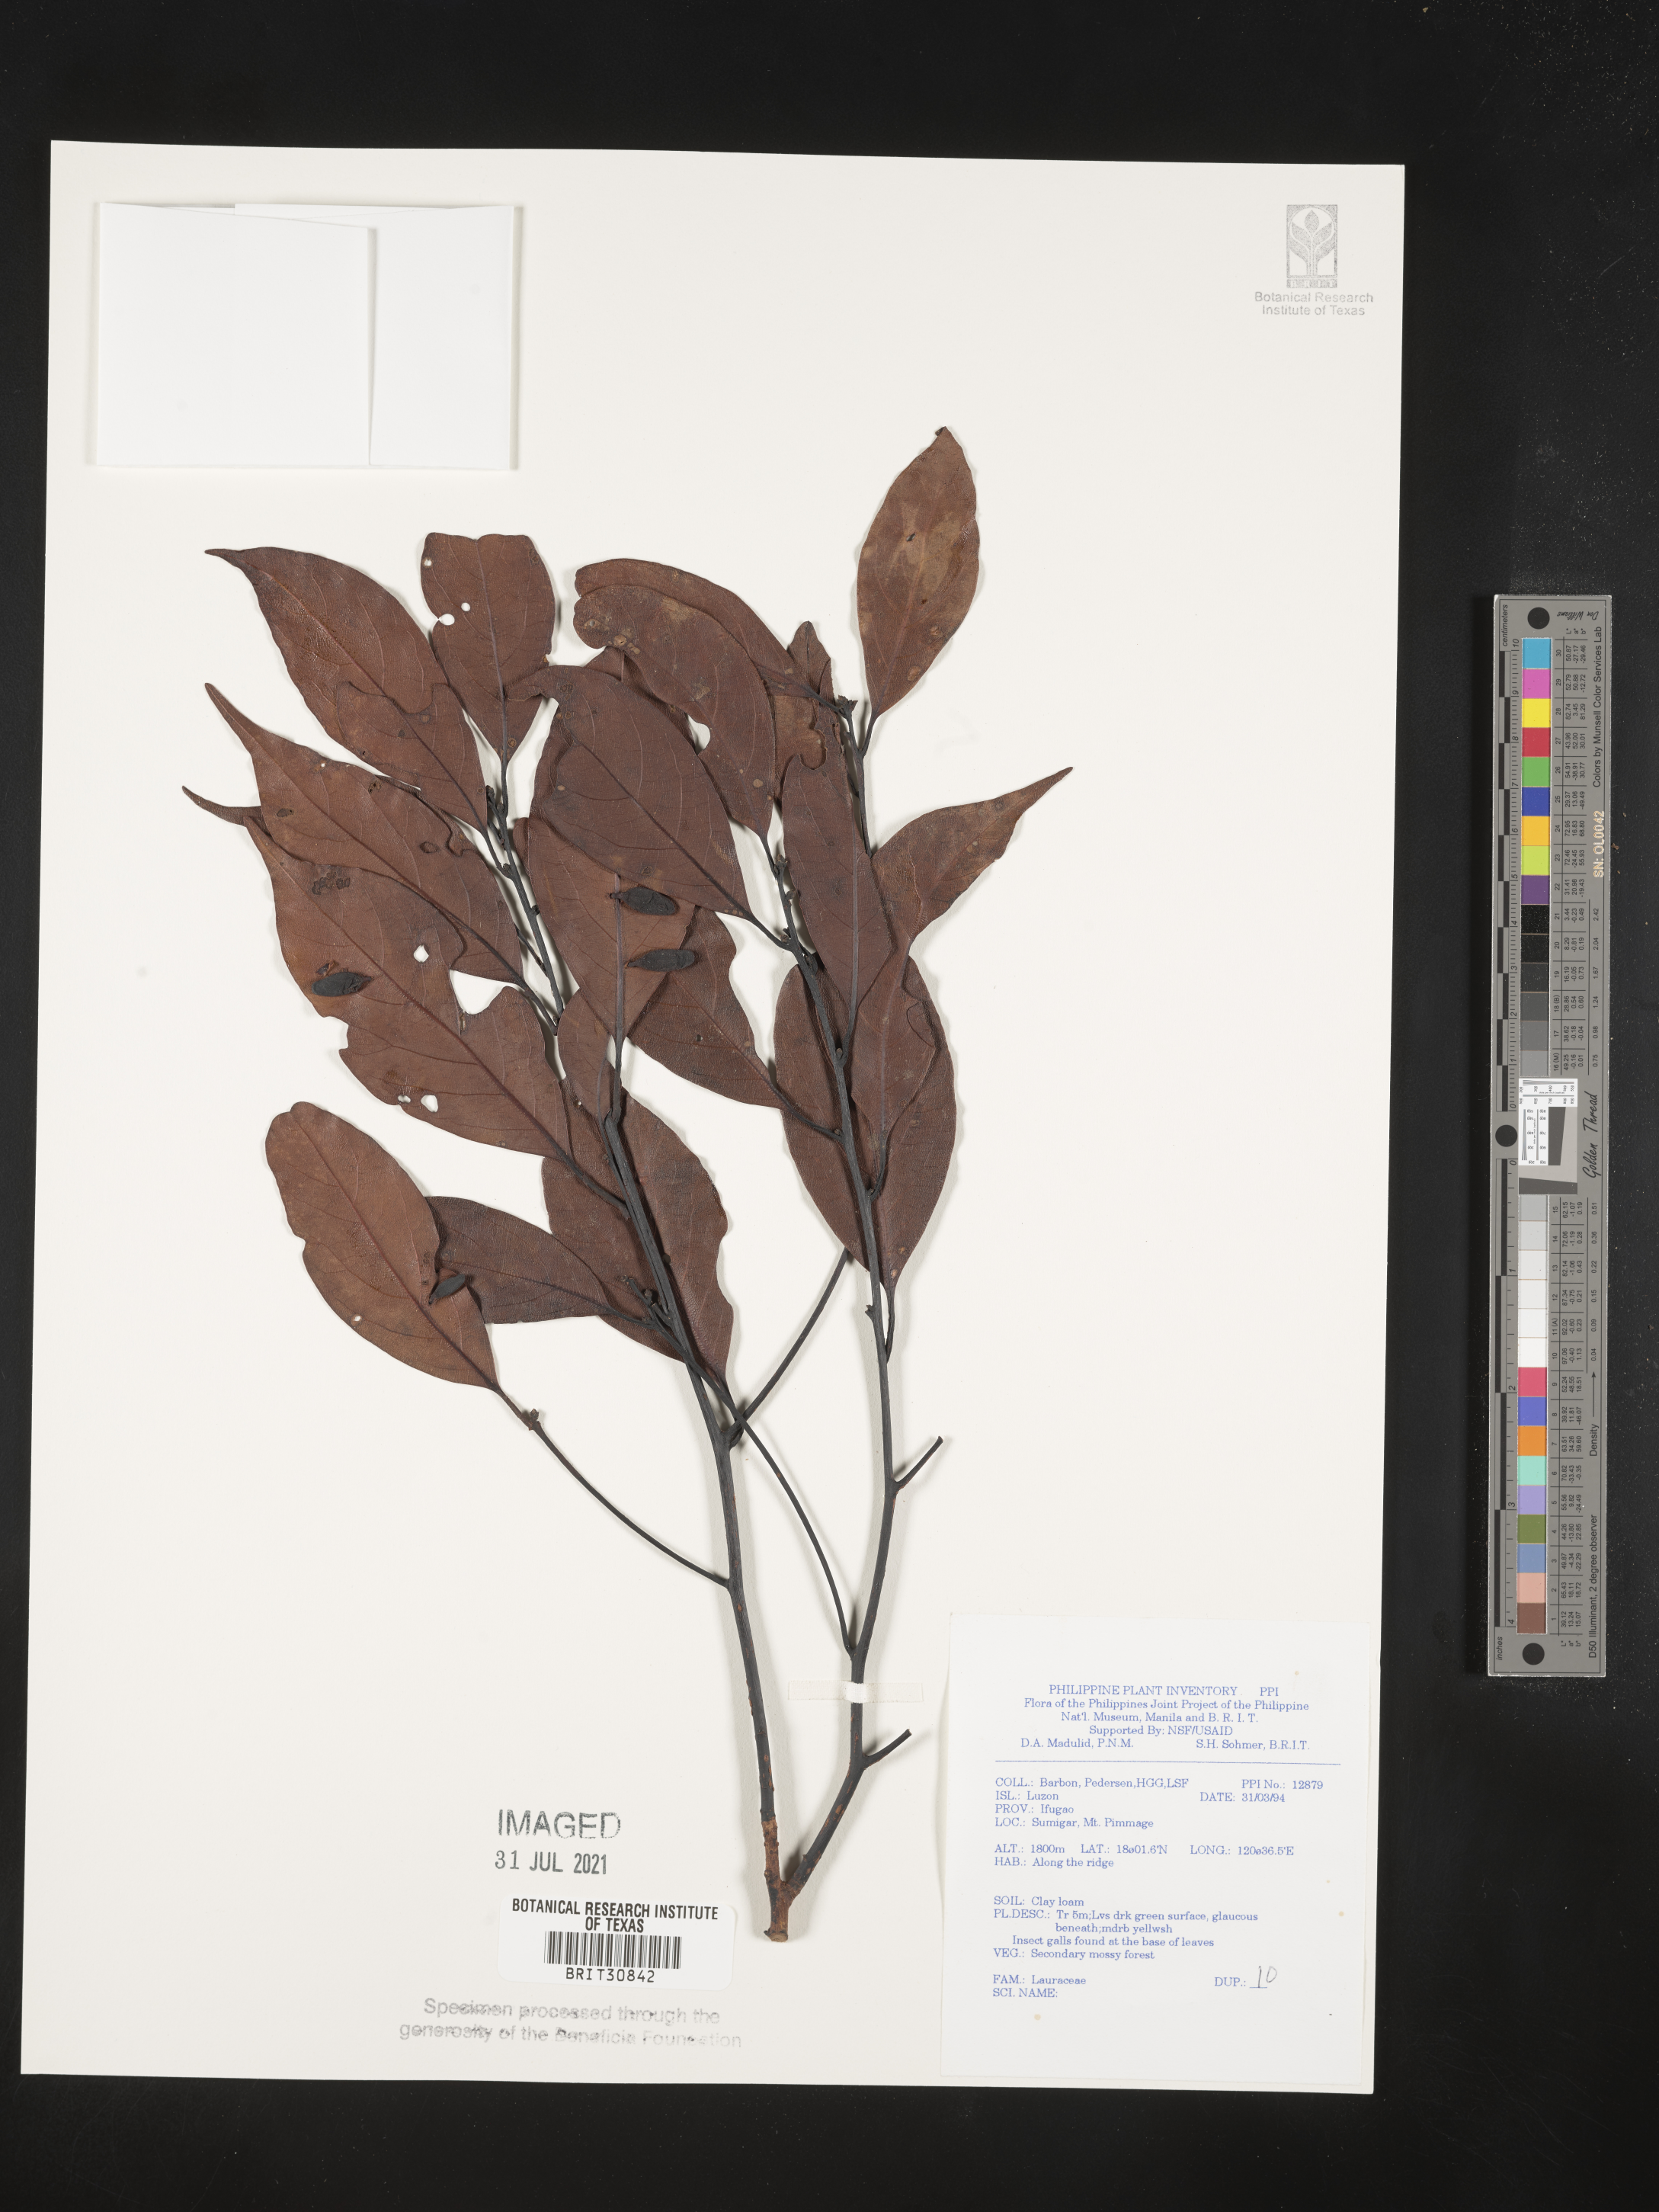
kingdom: Plantae
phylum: Tracheophyta
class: Magnoliopsida
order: Laurales
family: Lauraceae
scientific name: Lauraceae
